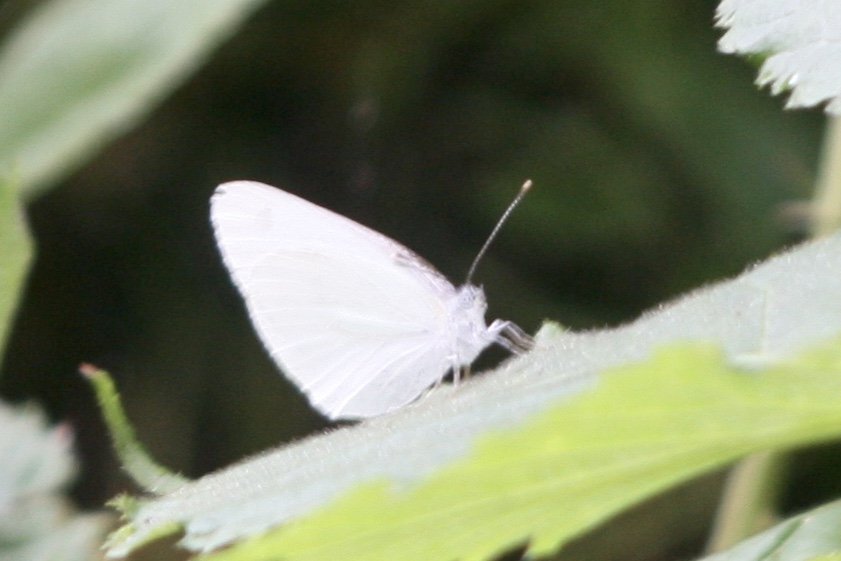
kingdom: Animalia
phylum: Arthropoda
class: Insecta
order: Lepidoptera
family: Pieridae
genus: Pieris
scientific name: Pieris oleracea
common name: Mustard White
